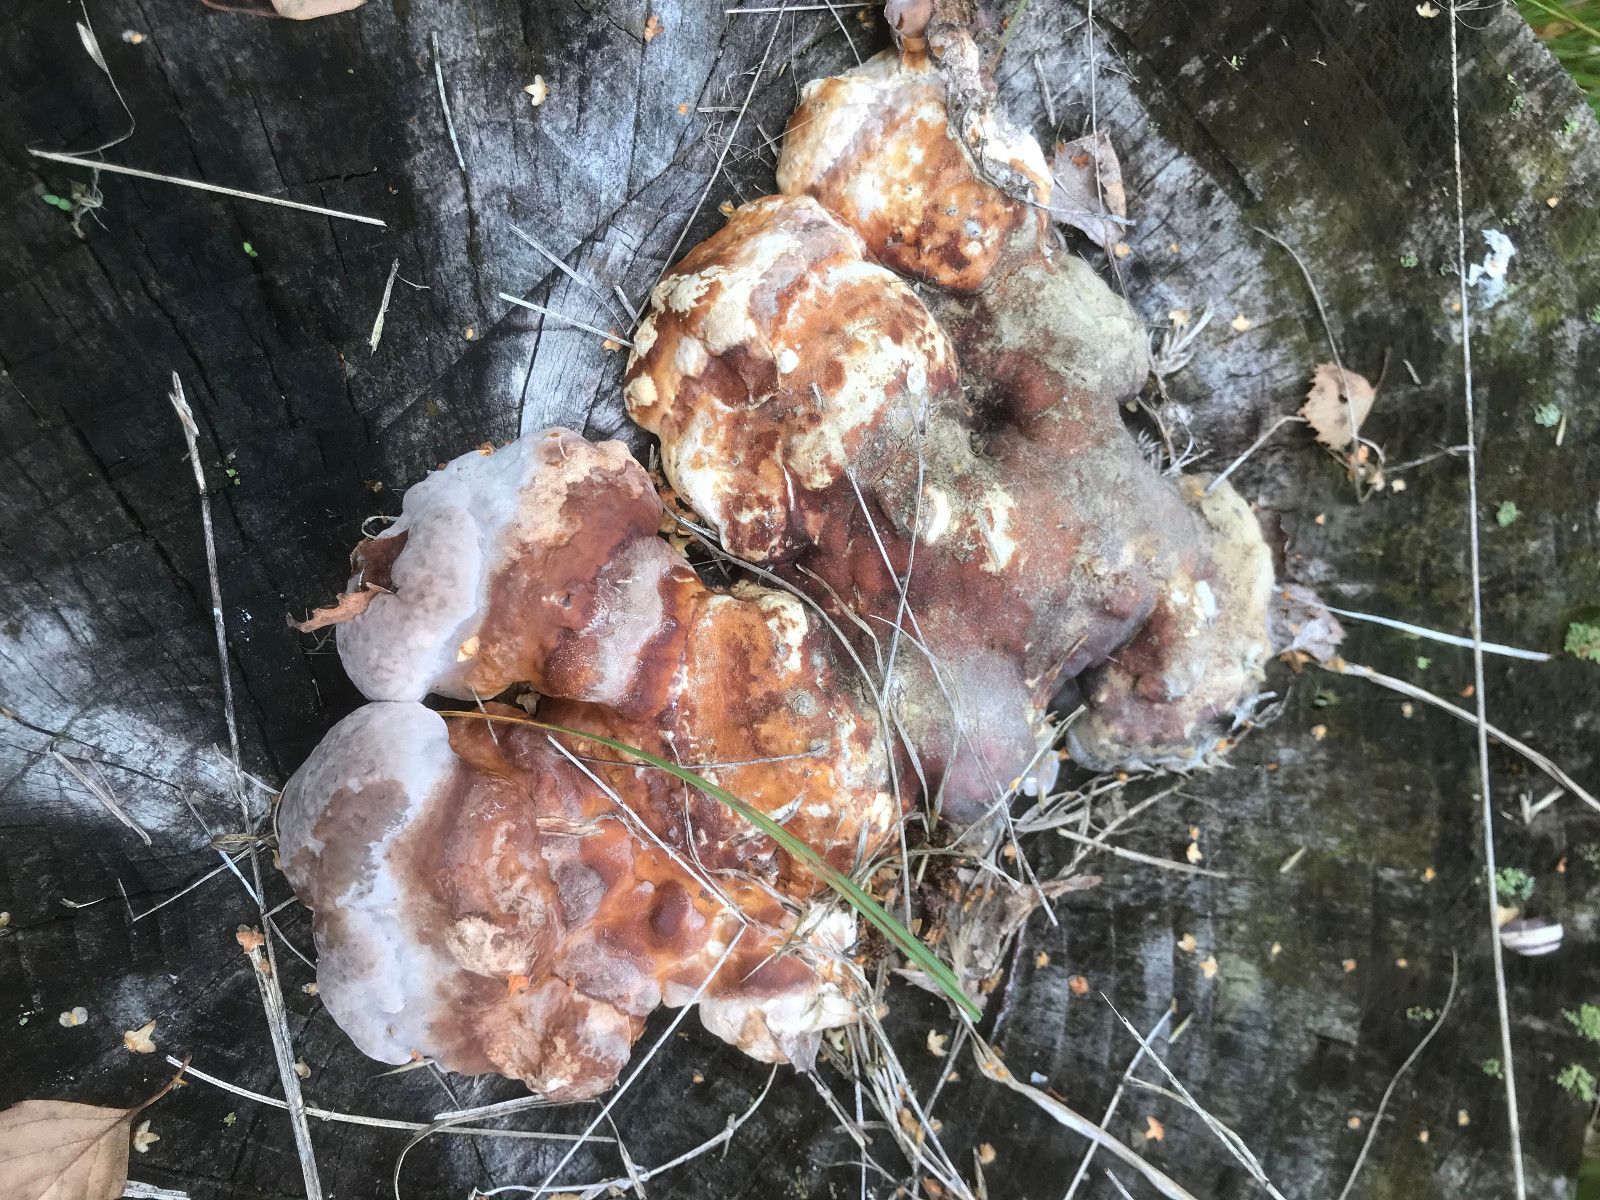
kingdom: Fungi
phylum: Basidiomycota
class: Agaricomycetes
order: Polyporales
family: Fomitopsidaceae
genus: Fomitopsis
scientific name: Fomitopsis pinicola
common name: randbæltet hovporesvamp
